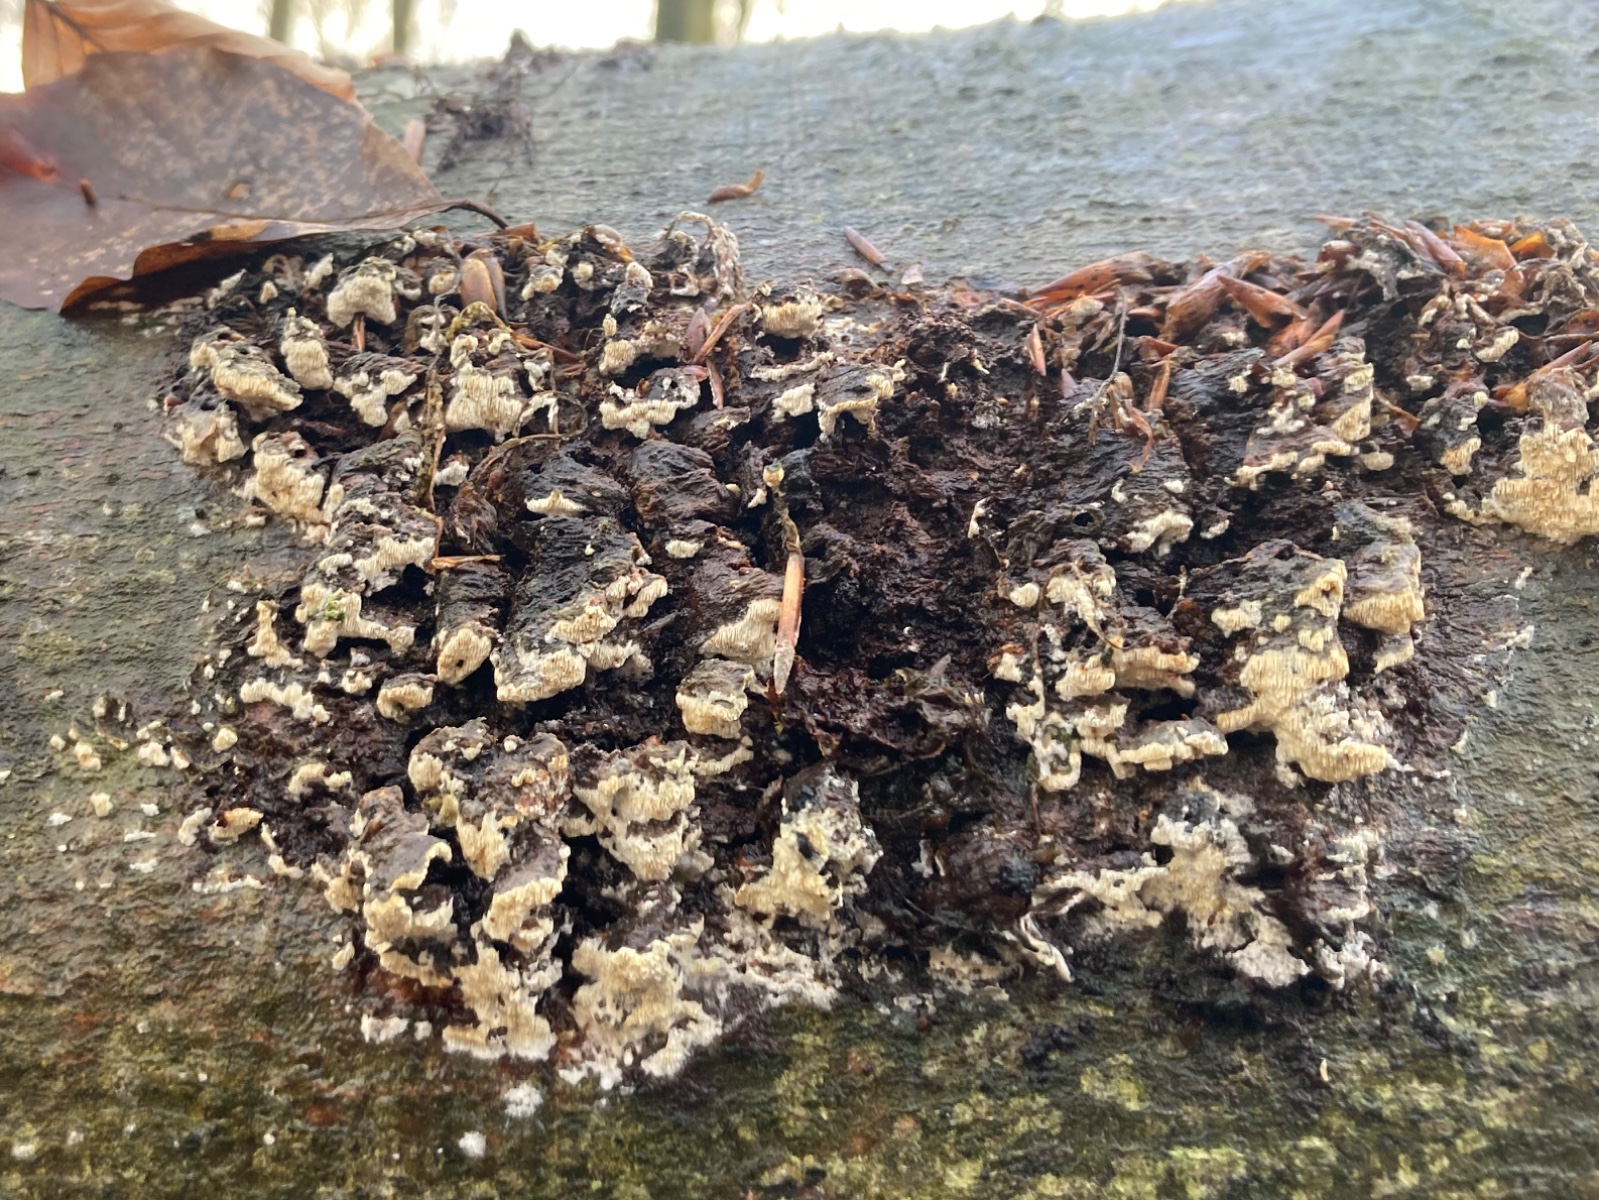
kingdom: Fungi
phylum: Basidiomycota
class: Agaricomycetes
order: Hymenochaetales
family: Schizoporaceae
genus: Xylodon
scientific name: Xylodon subtropicus
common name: labyrint-tandsvamp
